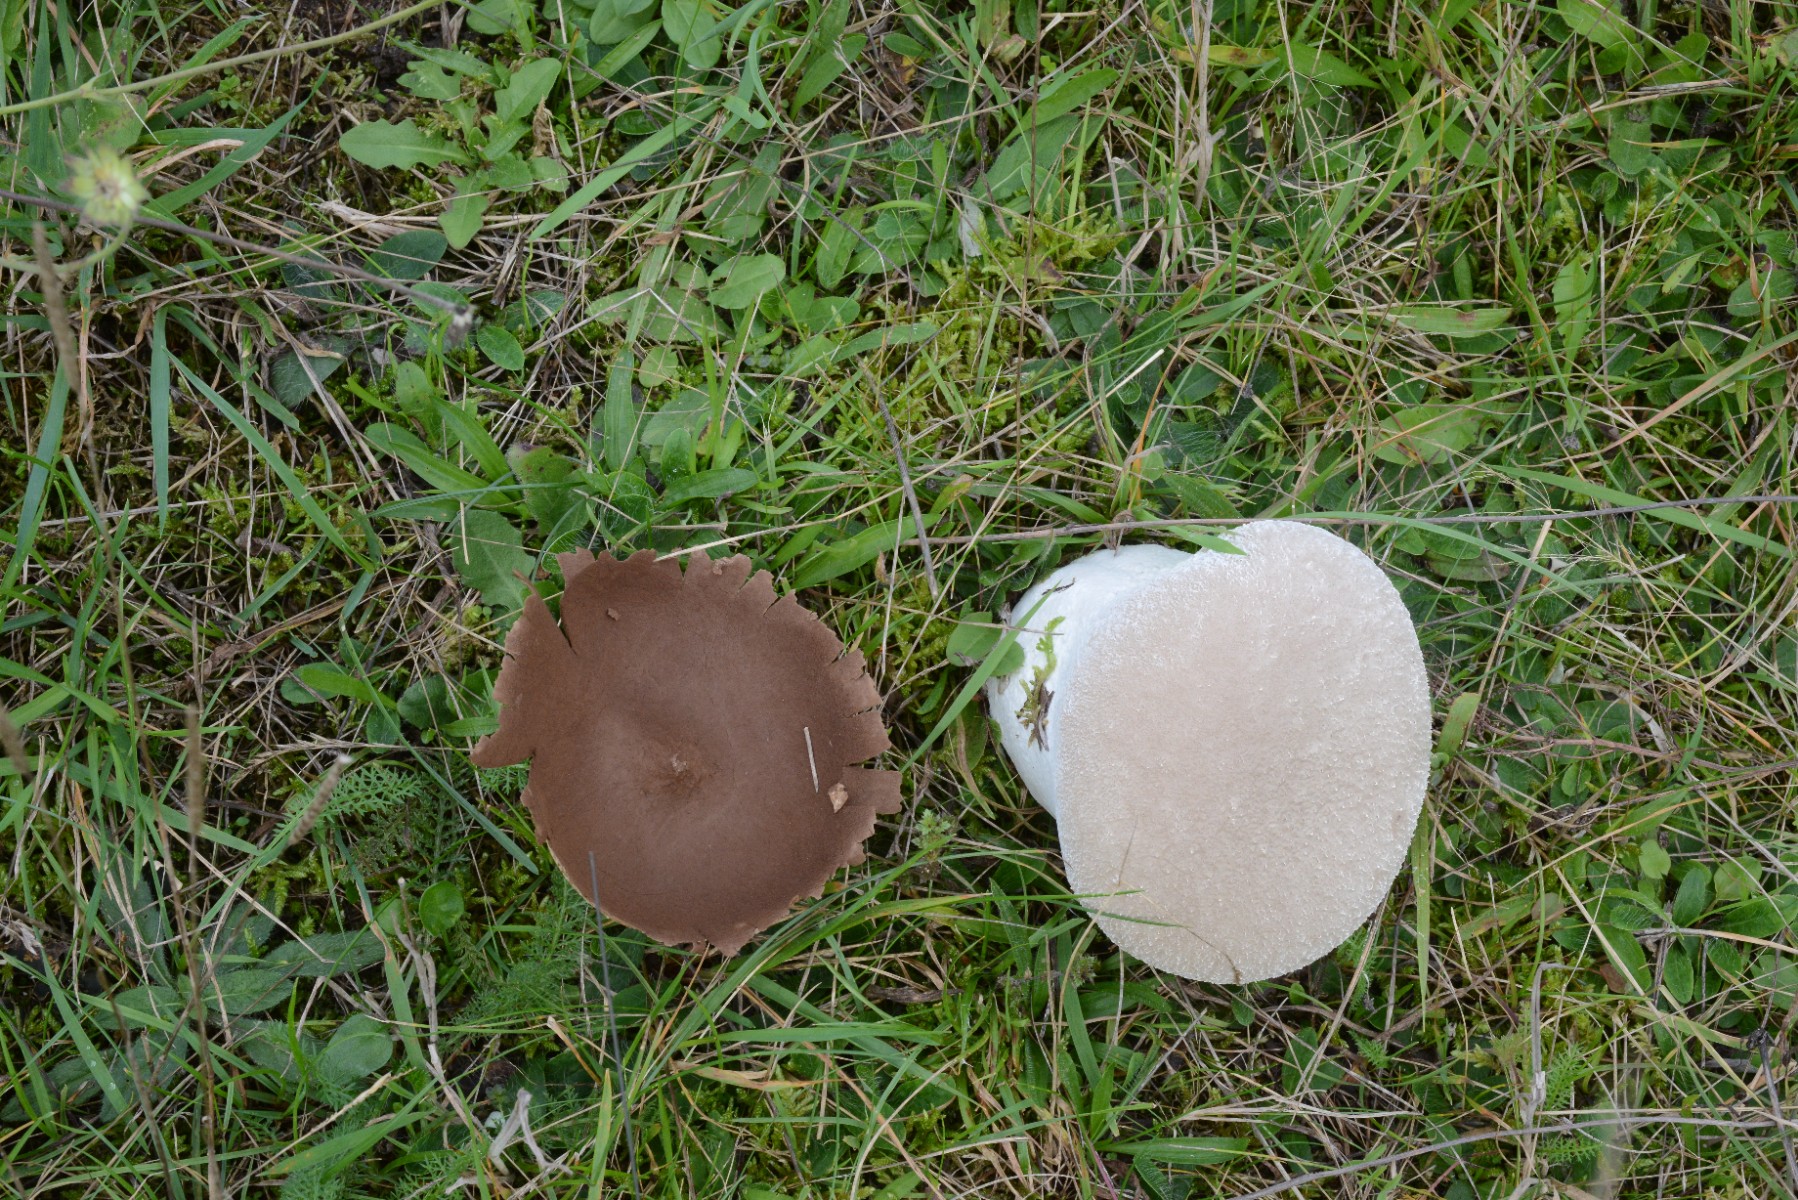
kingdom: Fungi
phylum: Basidiomycota
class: Agaricomycetes
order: Agaricales
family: Lycoperdaceae
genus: Bovistella
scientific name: Bovistella utriformis
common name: skællet støvbold
